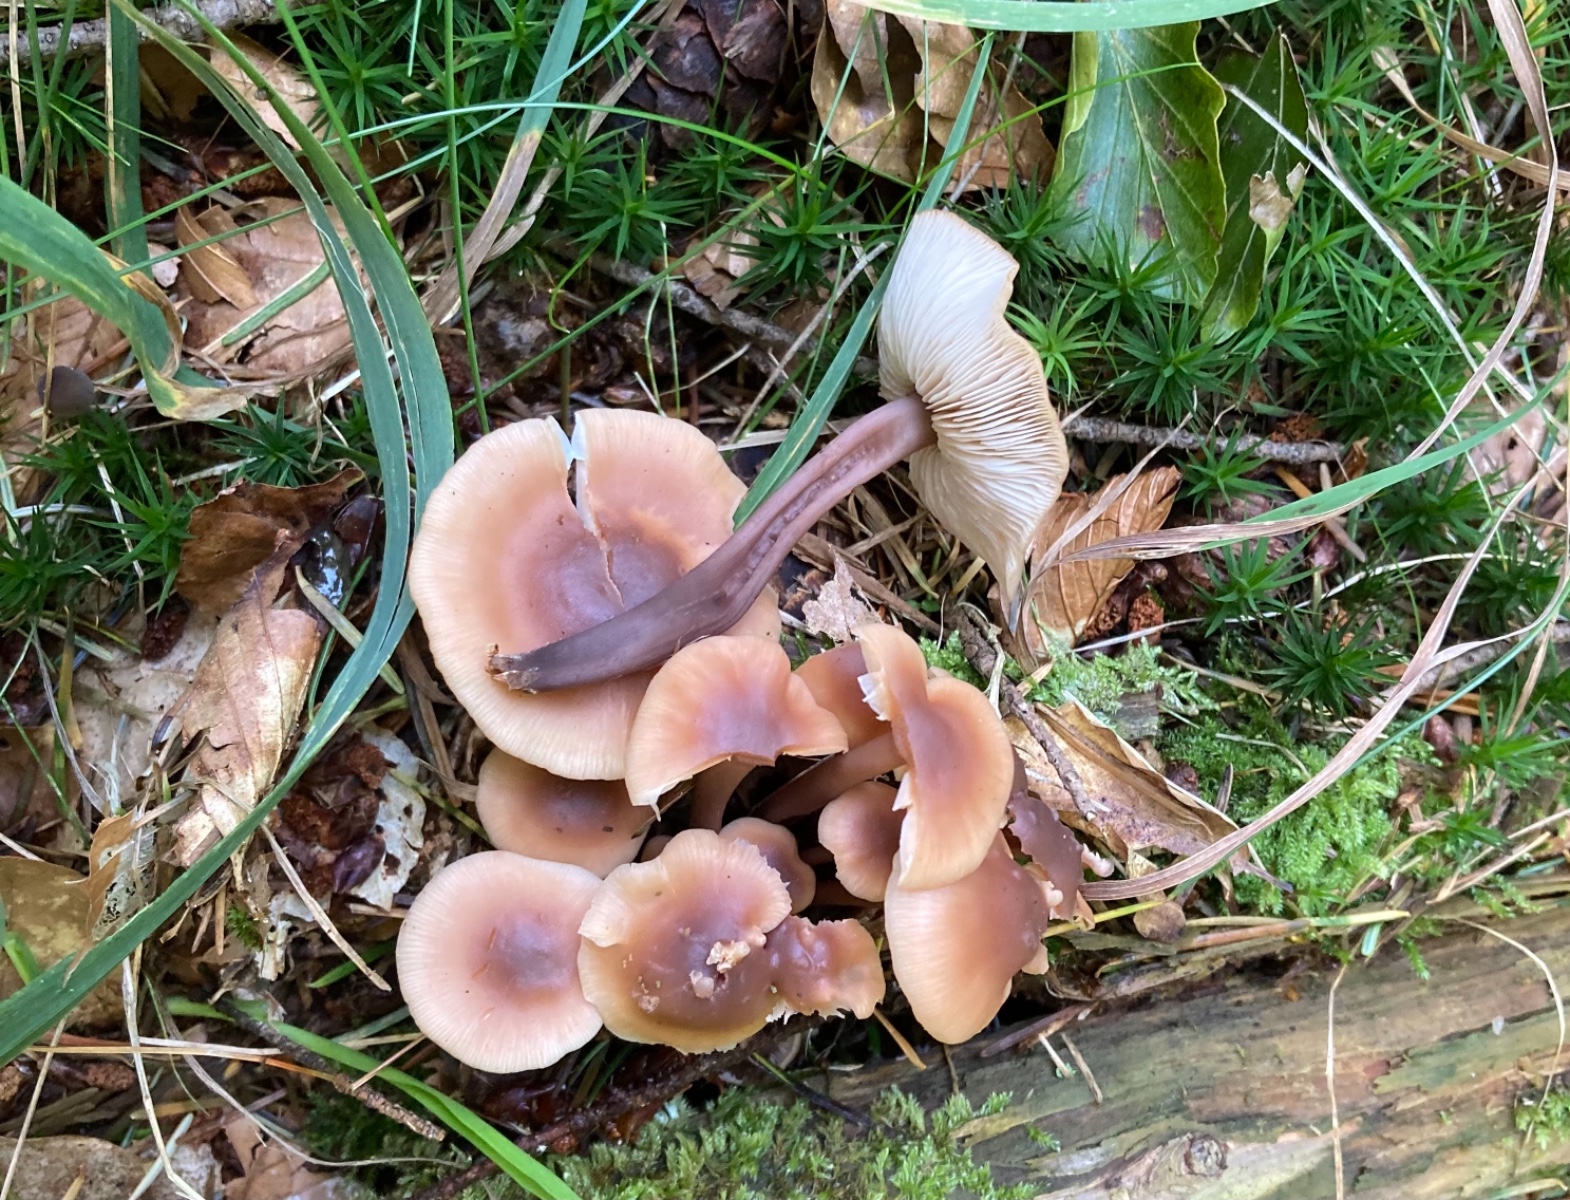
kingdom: Fungi
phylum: Basidiomycota
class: Agaricomycetes
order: Agaricales
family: Omphalotaceae
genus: Connopus
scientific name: Connopus acervatus
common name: tue-fladhat
